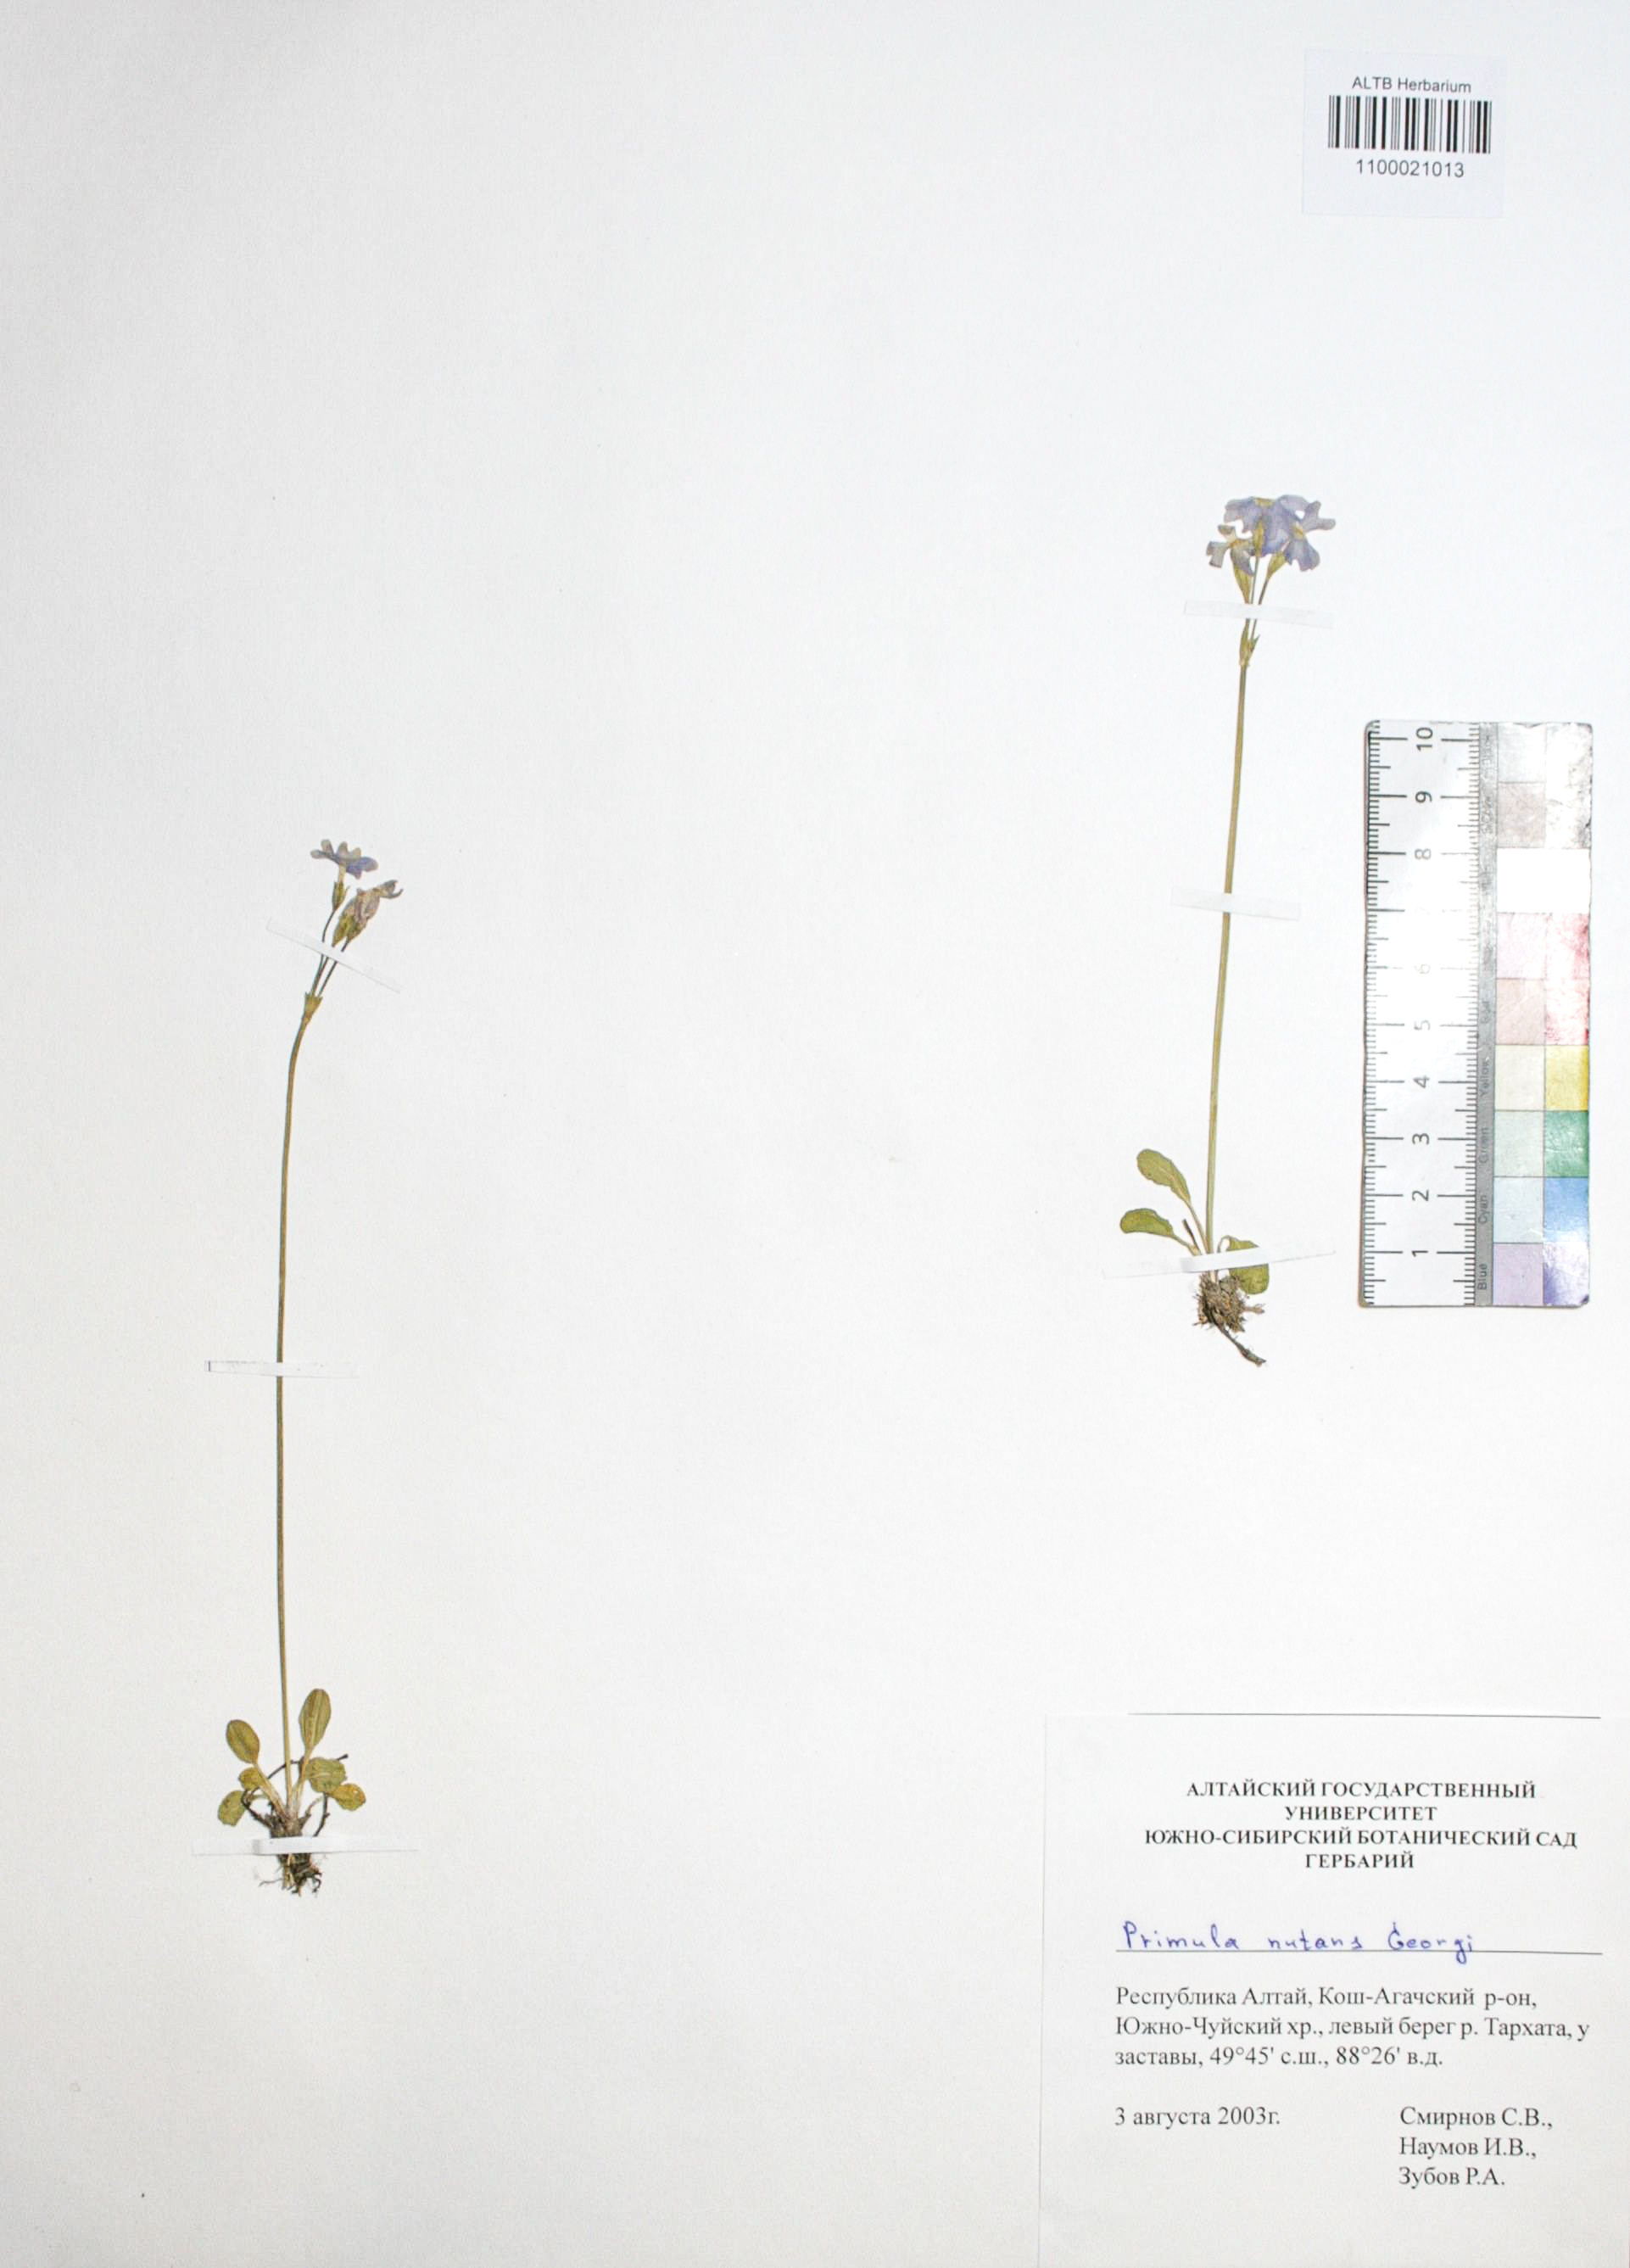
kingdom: Plantae
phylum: Tracheophyta
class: Magnoliopsida
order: Ericales
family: Primulaceae
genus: Primula
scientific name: Primula nutans
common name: Siberian primrose
